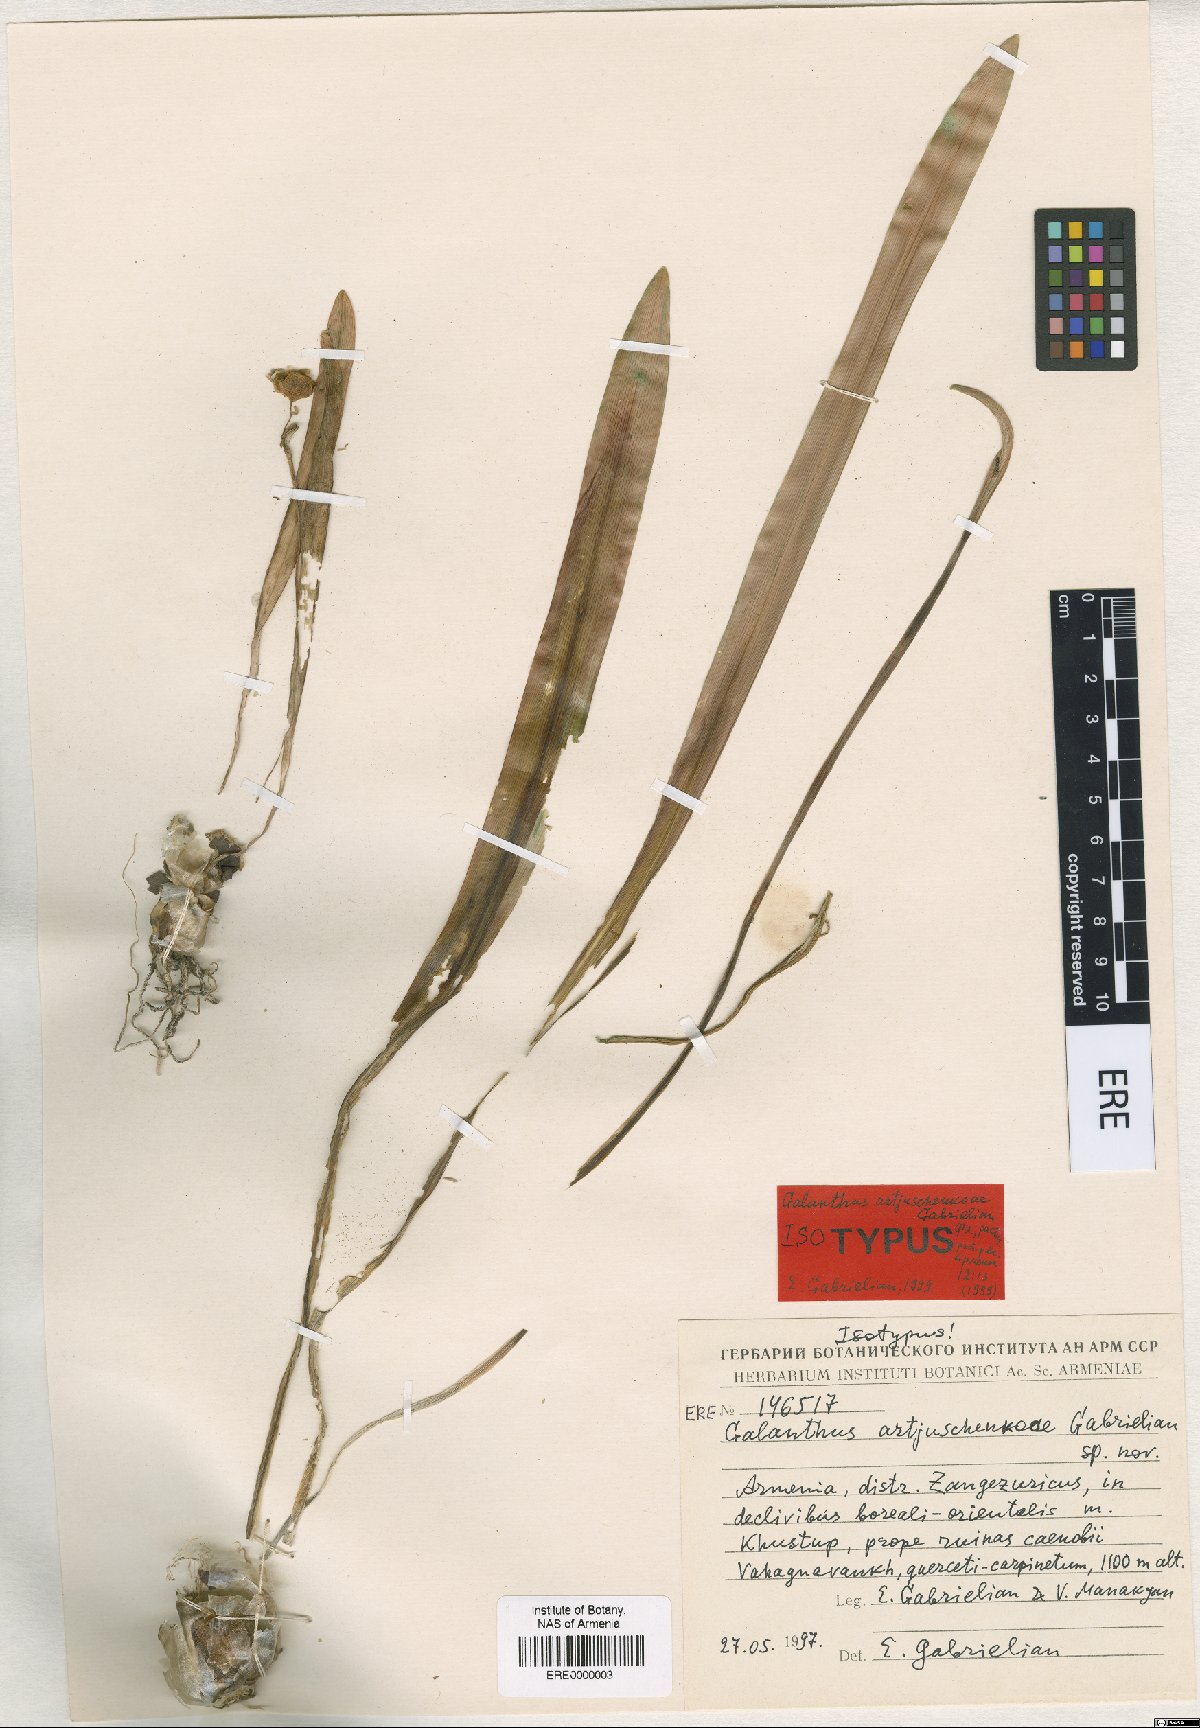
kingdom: Plantae
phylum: Tracheophyta
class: Liliopsida
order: Asparagales
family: Amaryllidaceae
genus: Galanthus
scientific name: Galanthus transcaucasicus
